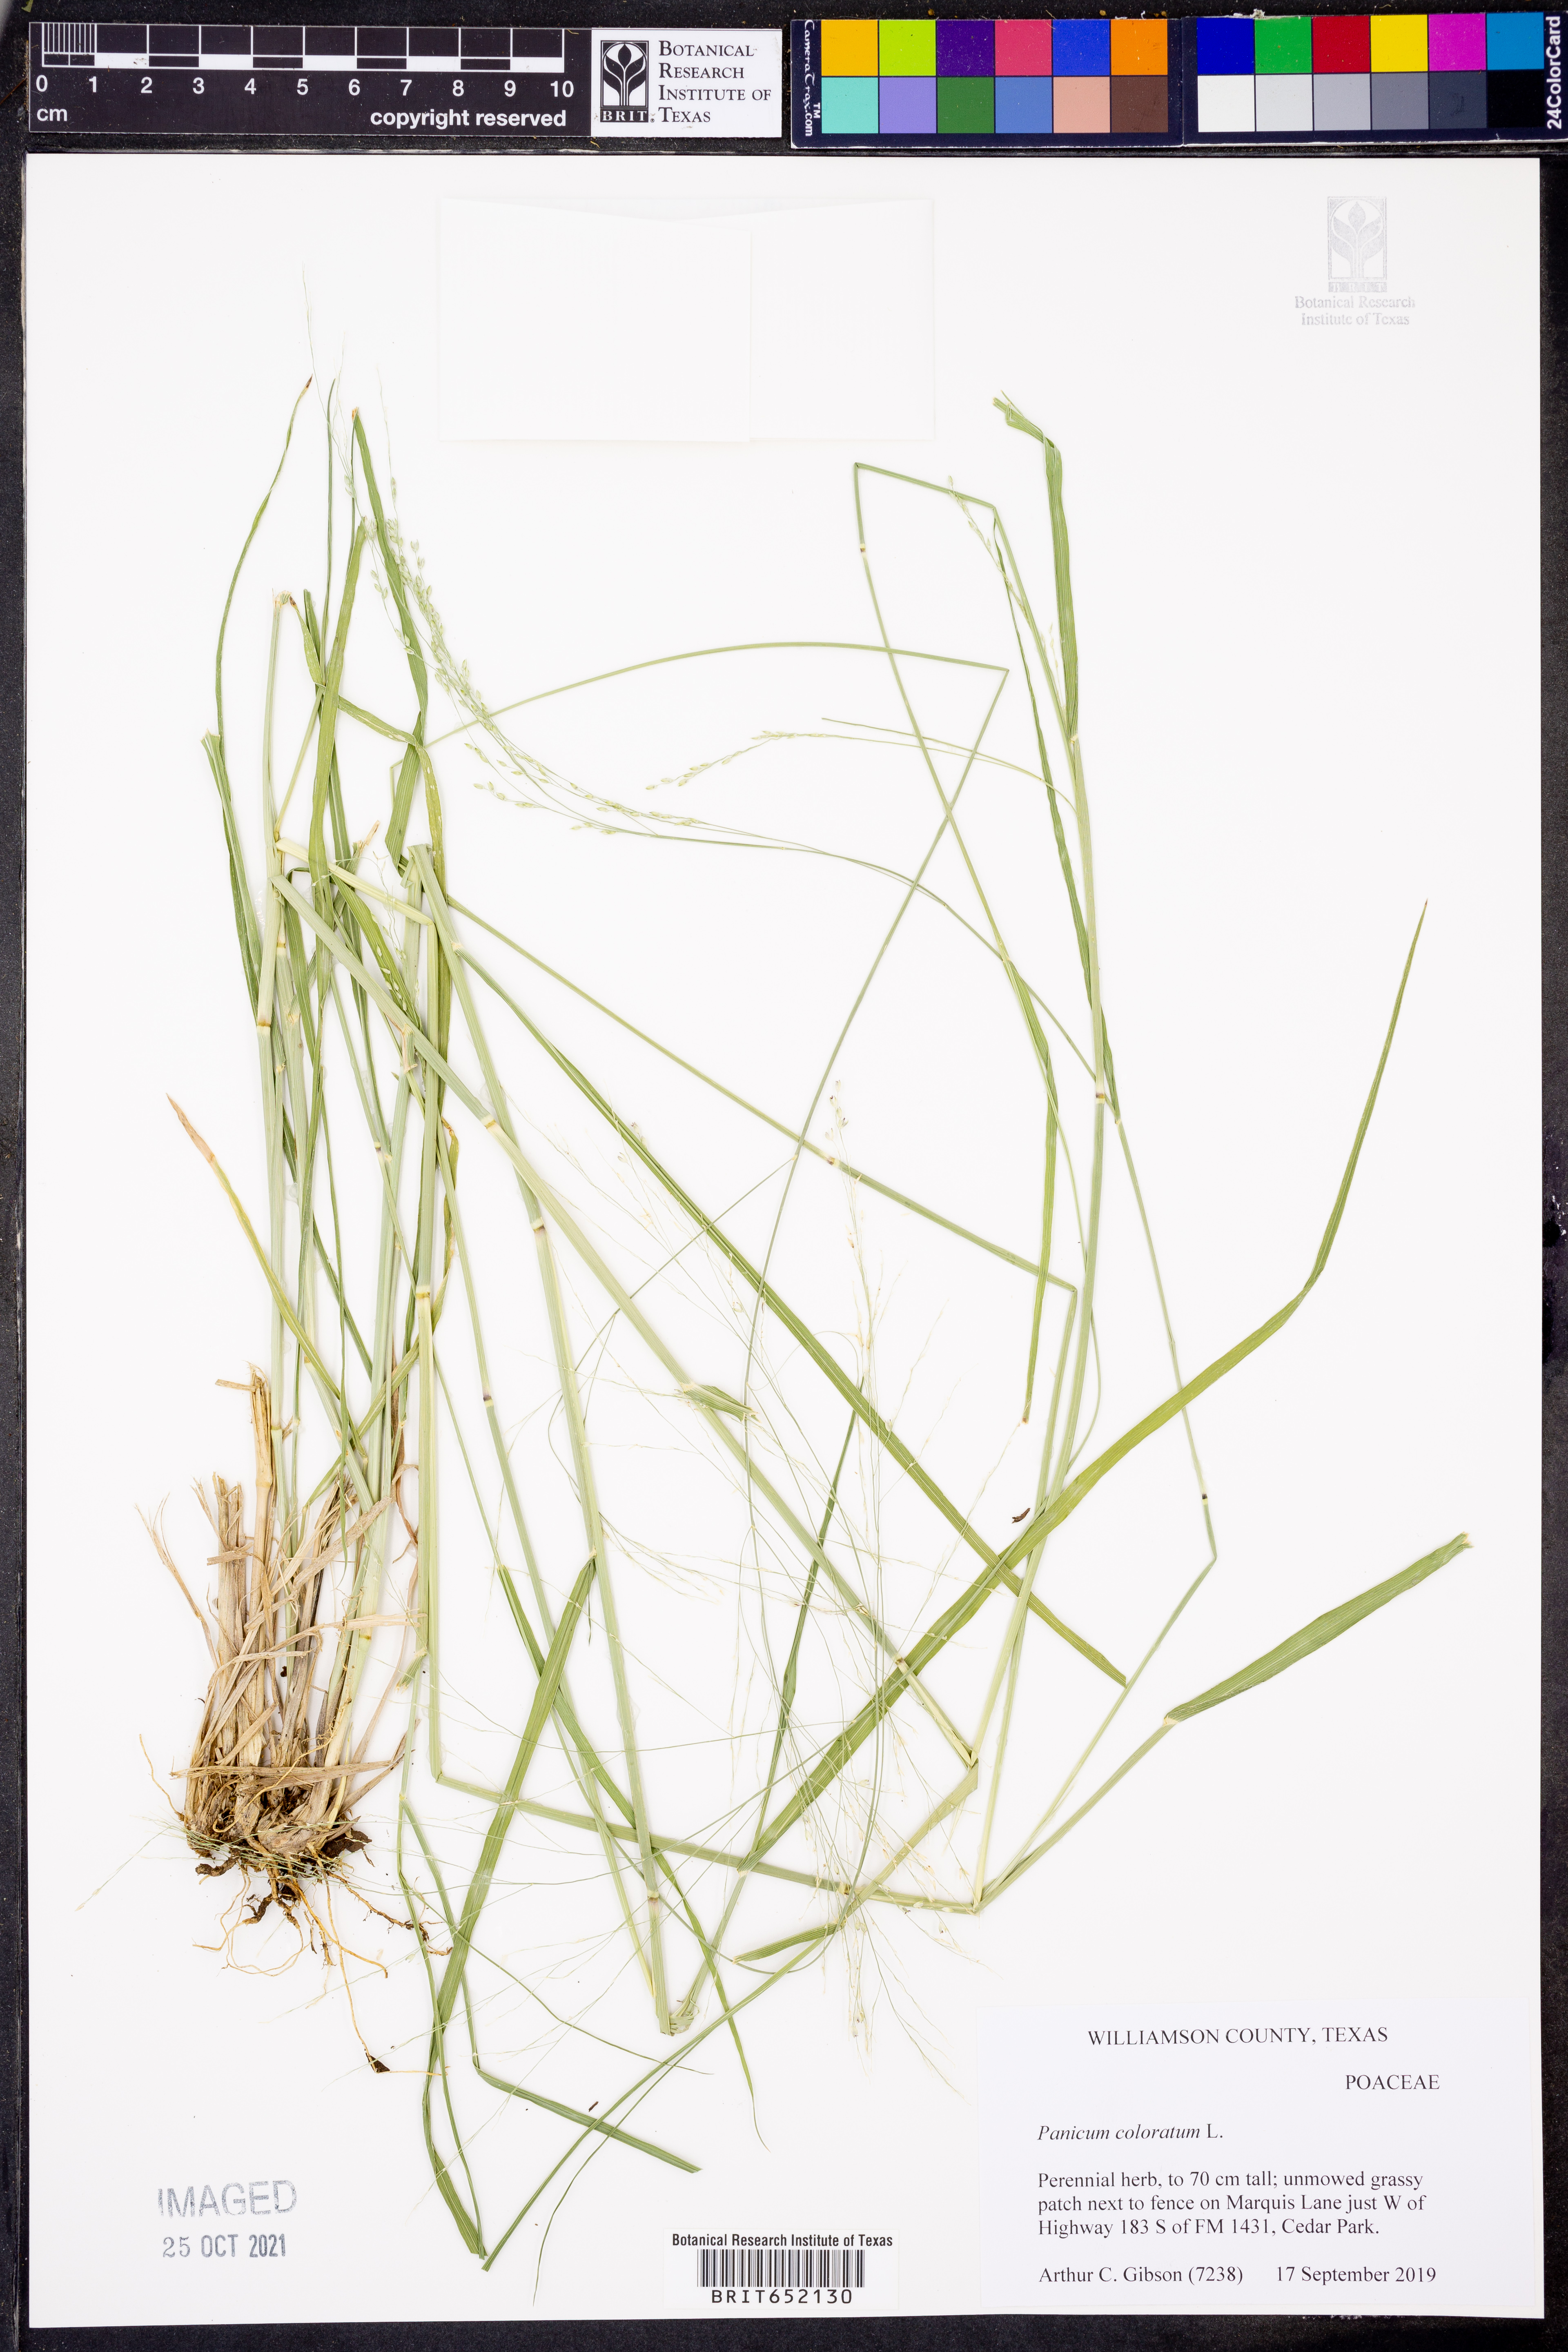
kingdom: Plantae
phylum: Tracheophyta
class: Liliopsida
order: Poales
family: Poaceae
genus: Panicum
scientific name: Panicum coloratum
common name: Kleingrass
